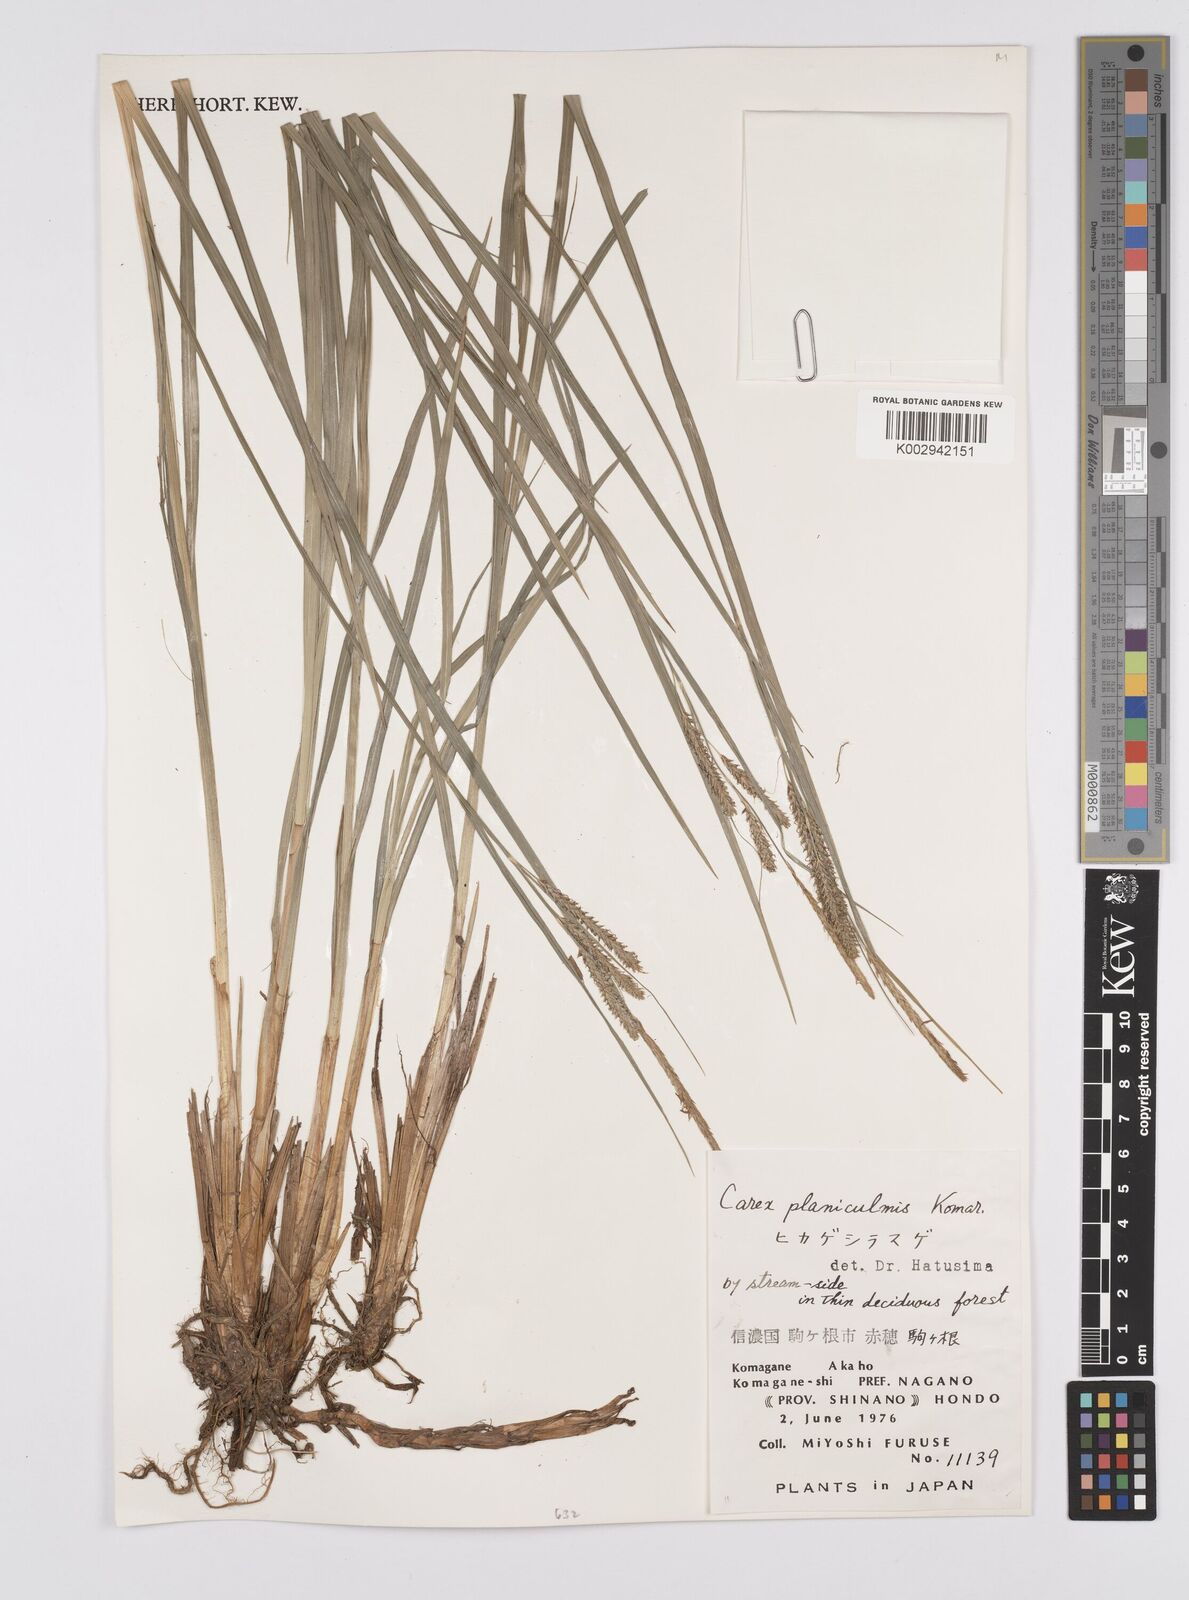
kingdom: Plantae
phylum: Tracheophyta
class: Liliopsida
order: Poales
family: Cyperaceae
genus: Carex
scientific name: Carex planiculmis
